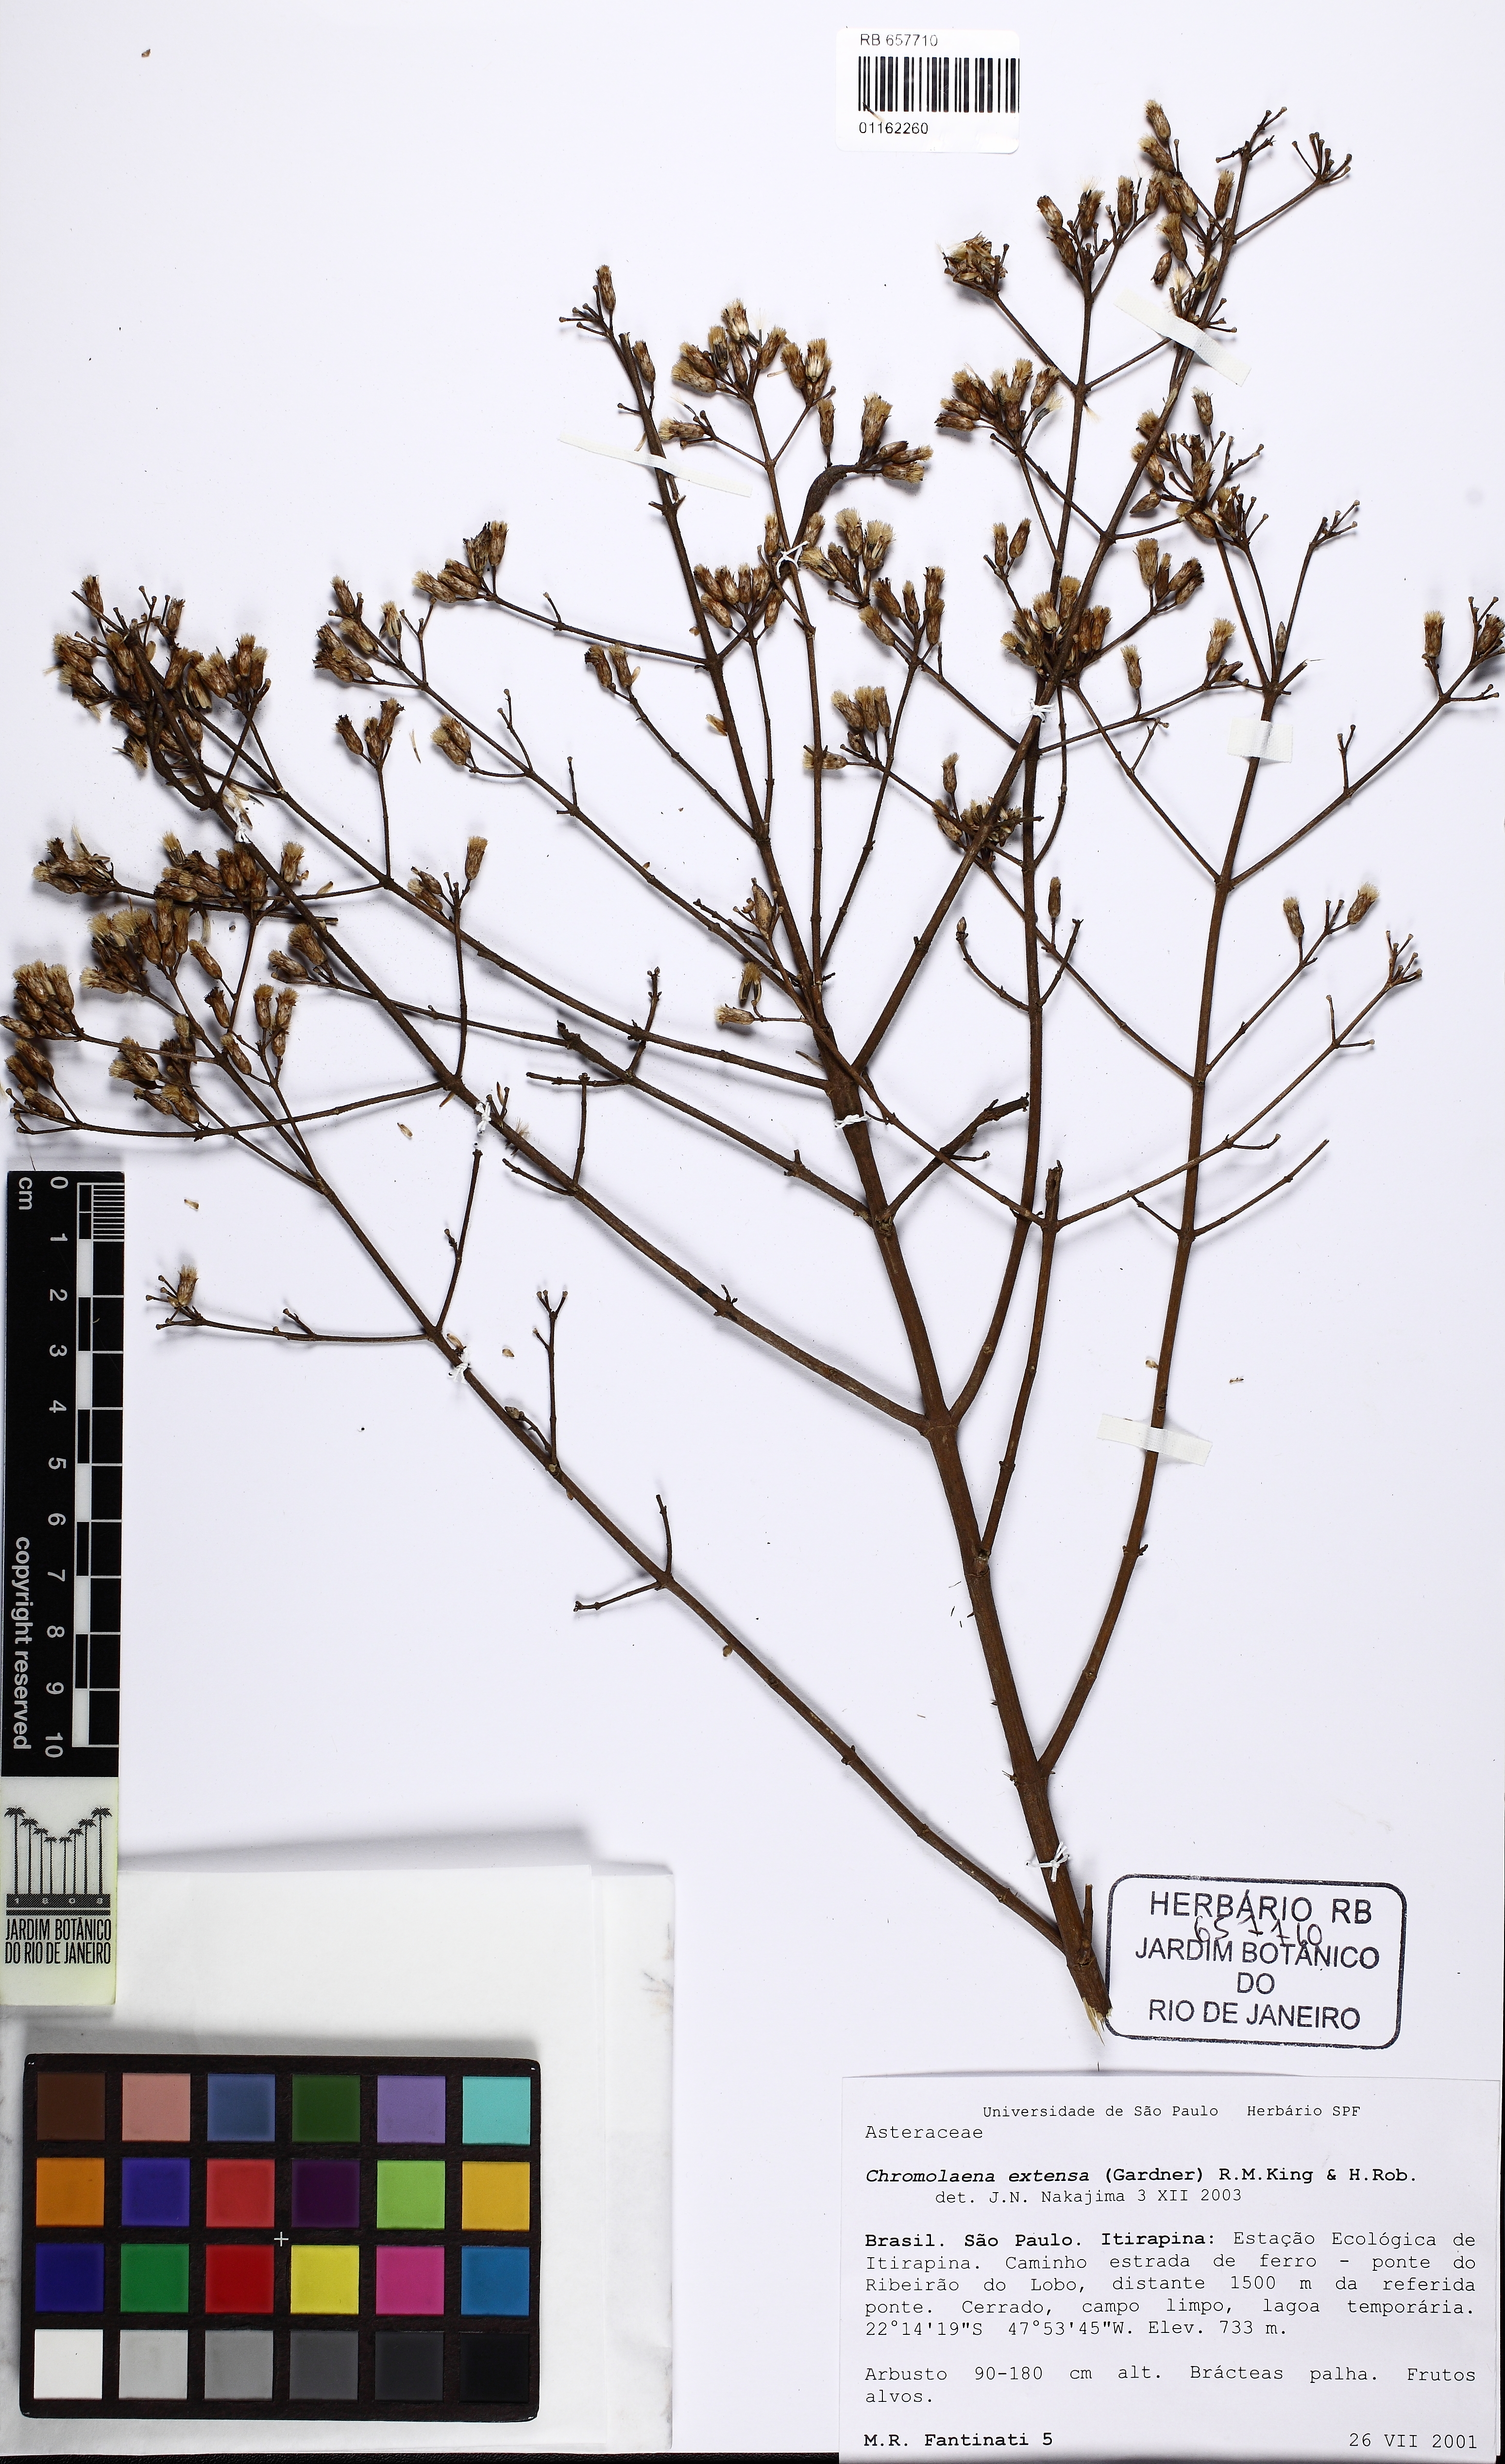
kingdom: Plantae
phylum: Tracheophyta
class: Magnoliopsida
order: Asterales
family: Asteraceae
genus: Chromolaena
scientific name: Chromolaena extensa
